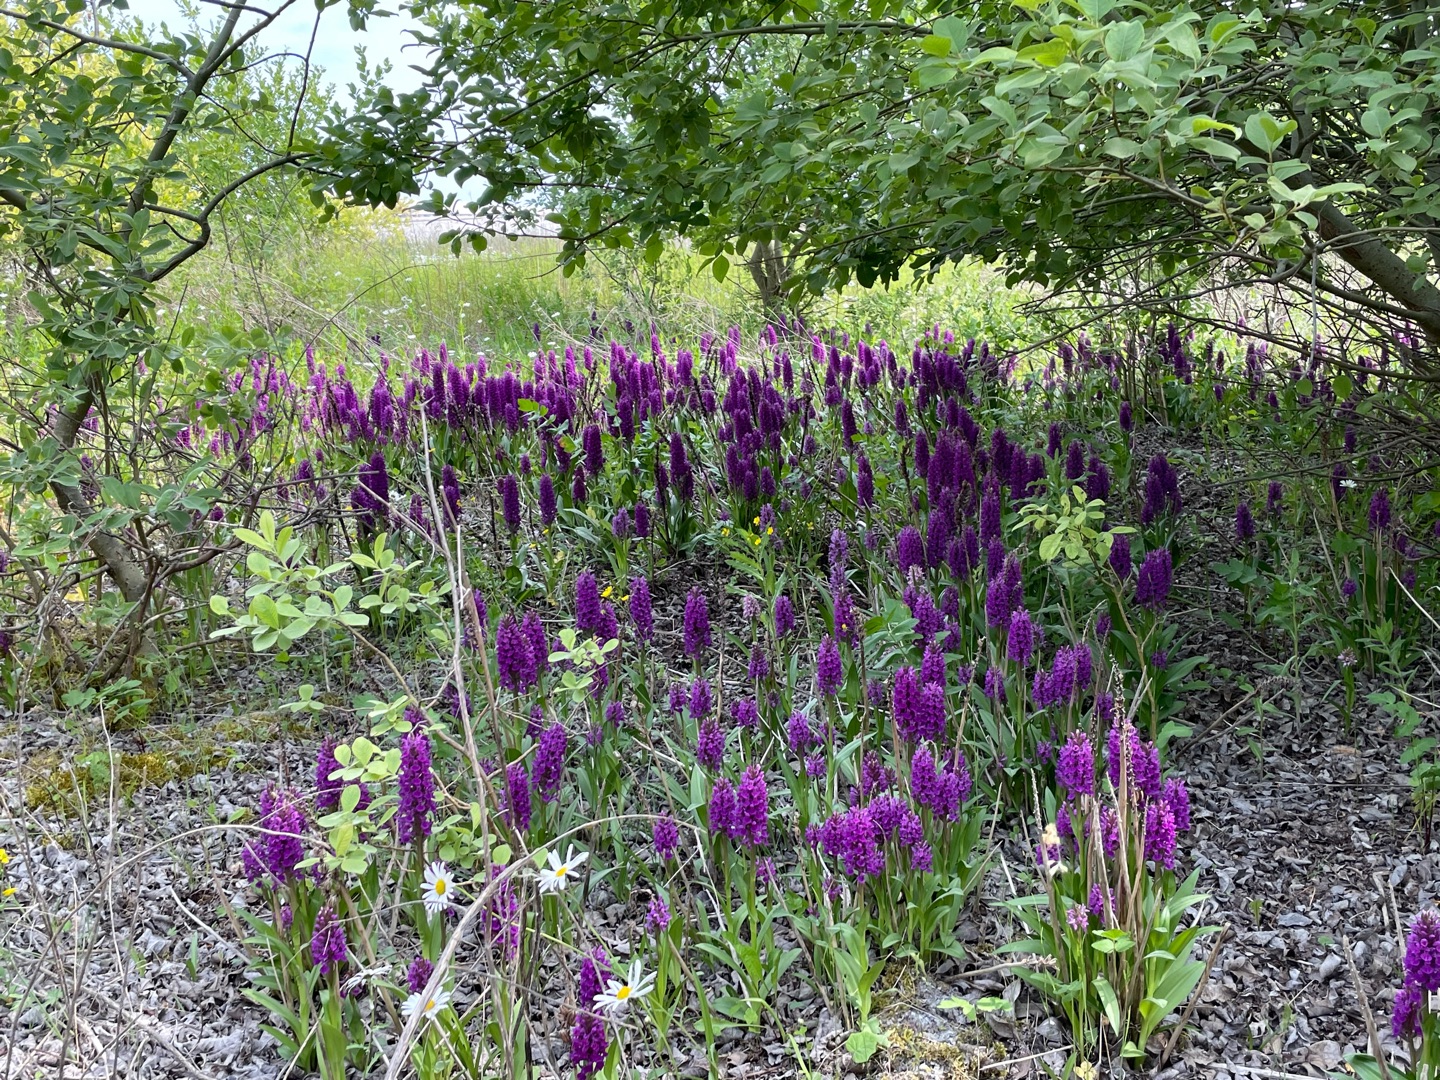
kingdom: Plantae
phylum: Tracheophyta
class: Liliopsida
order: Asparagales
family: Orchidaceae
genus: Dactylorhiza
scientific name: Dactylorhiza majalis
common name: Purpur-gøgeurt
